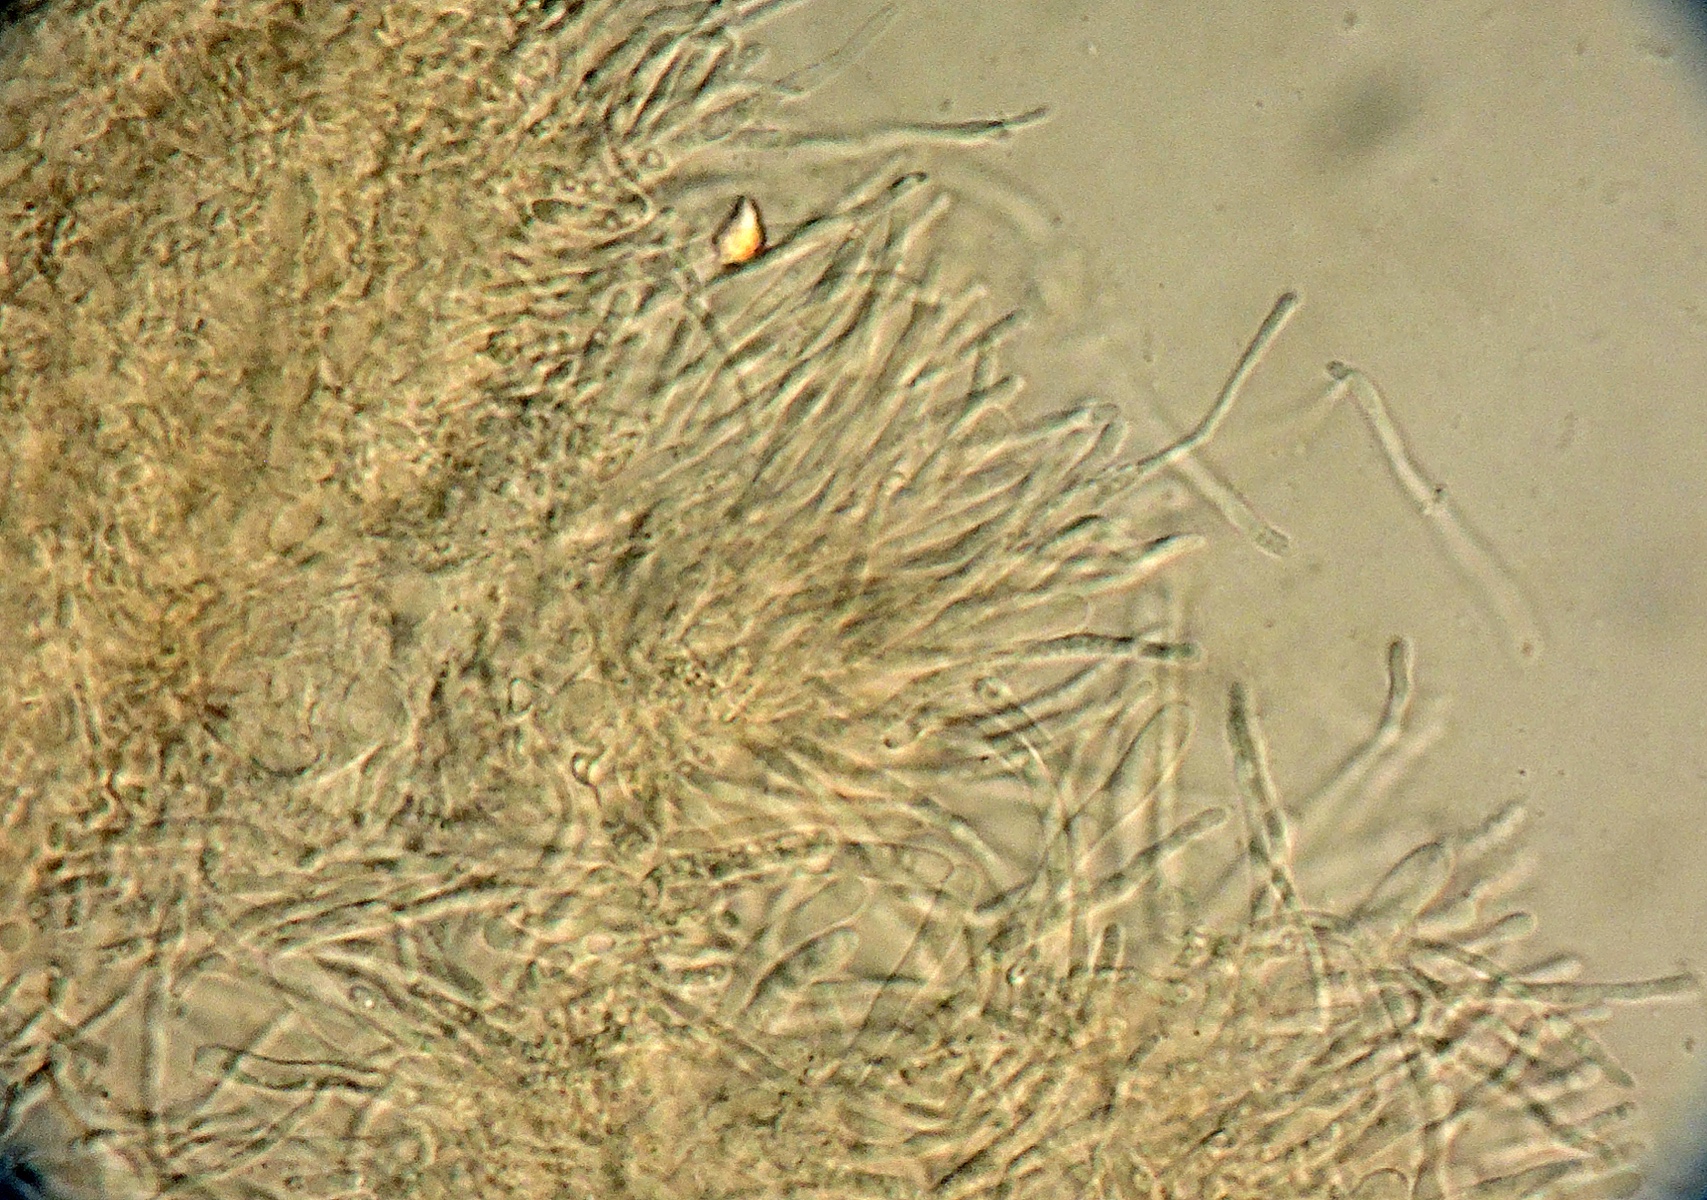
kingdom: Fungi
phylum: Ascomycota
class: Orbiliomycetes
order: Orbiliales
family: Orbiliaceae
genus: Orbilia
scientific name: Orbilia tremulae
